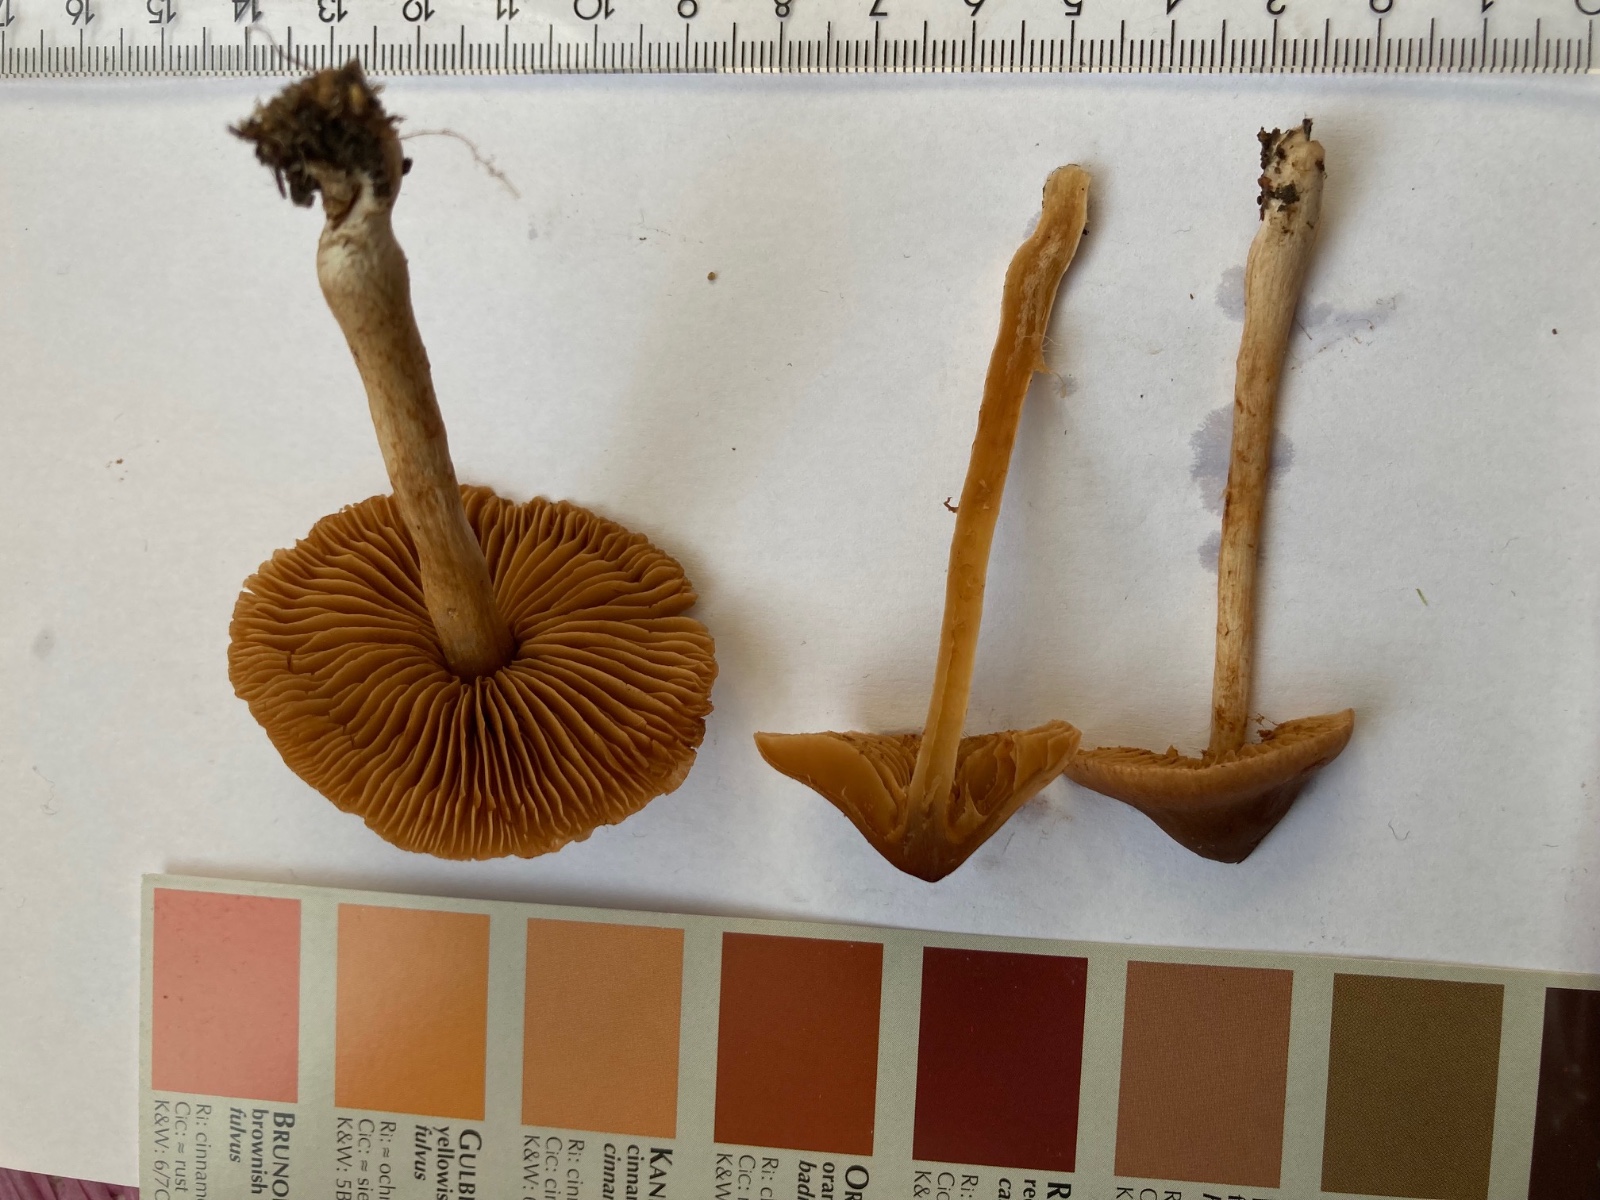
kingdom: Fungi
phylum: Basidiomycota
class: Agaricomycetes
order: Agaricales
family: Cortinariaceae
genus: Cortinarius
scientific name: Cortinarius
